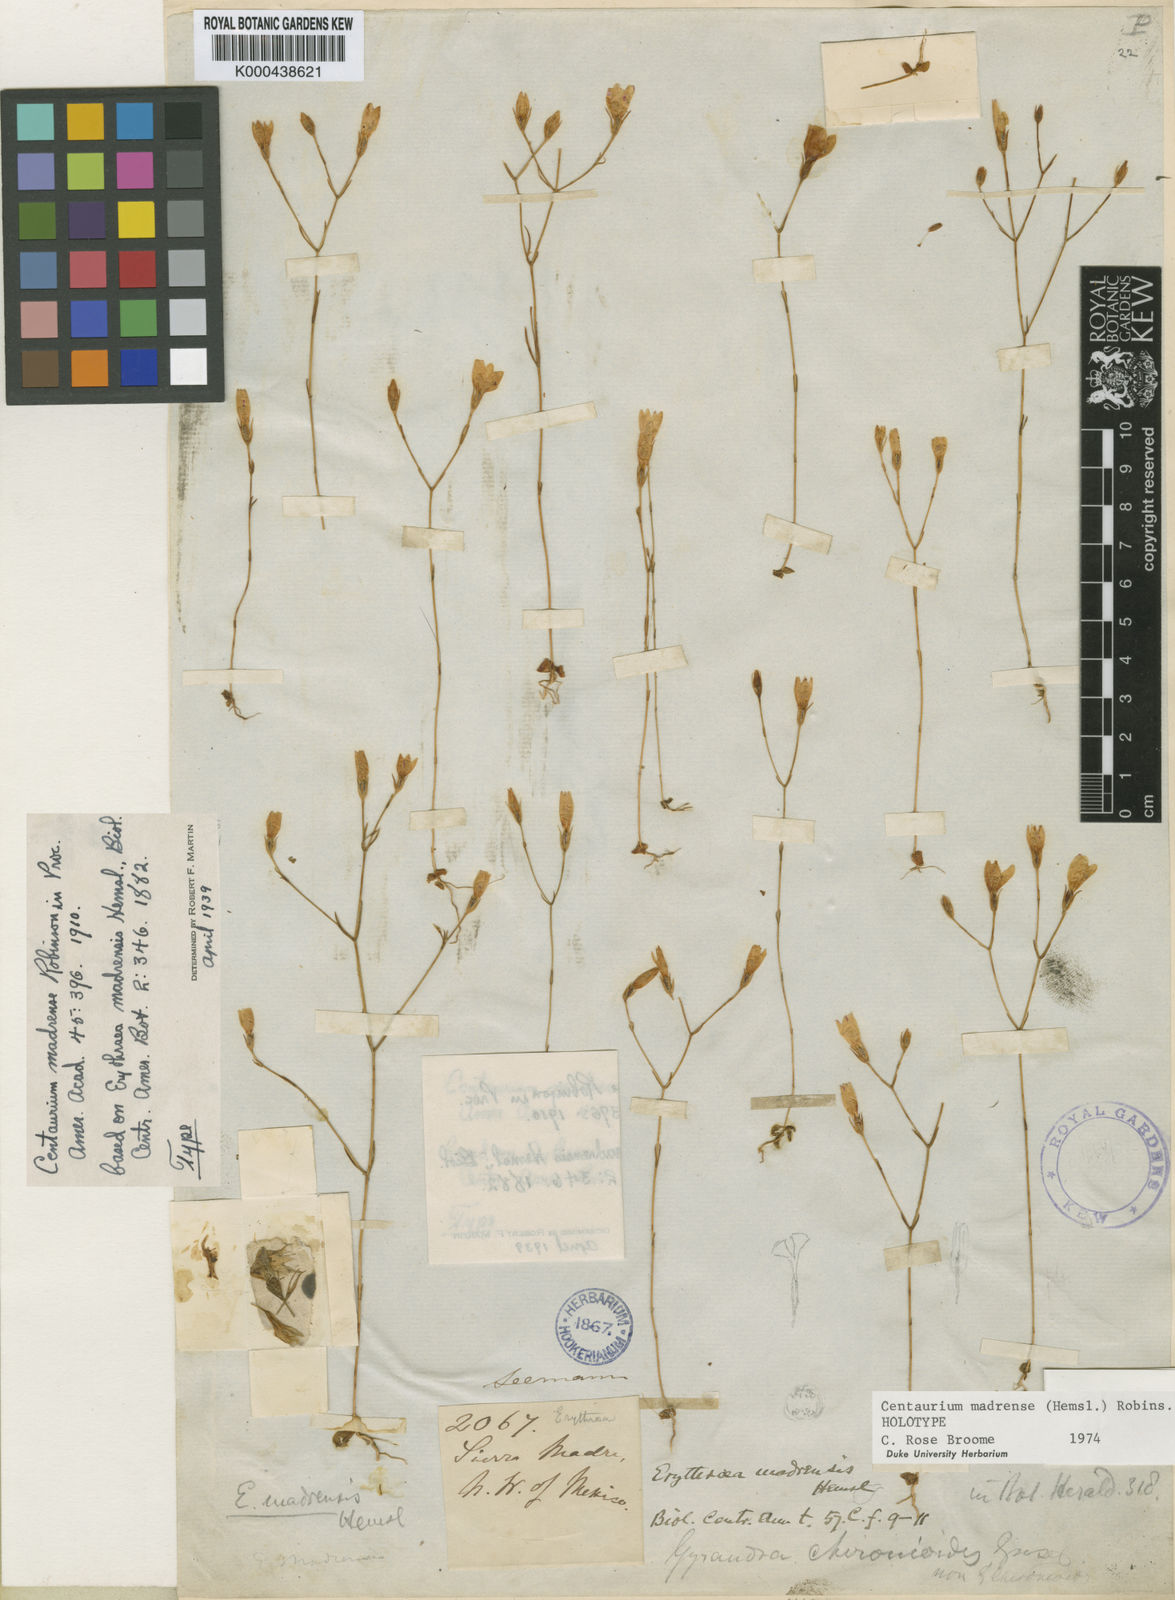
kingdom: Plantae
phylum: Tracheophyta
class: Magnoliopsida
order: Gentianales
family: Gentianaceae
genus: Zeltnera
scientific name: Zeltnera madrensis
